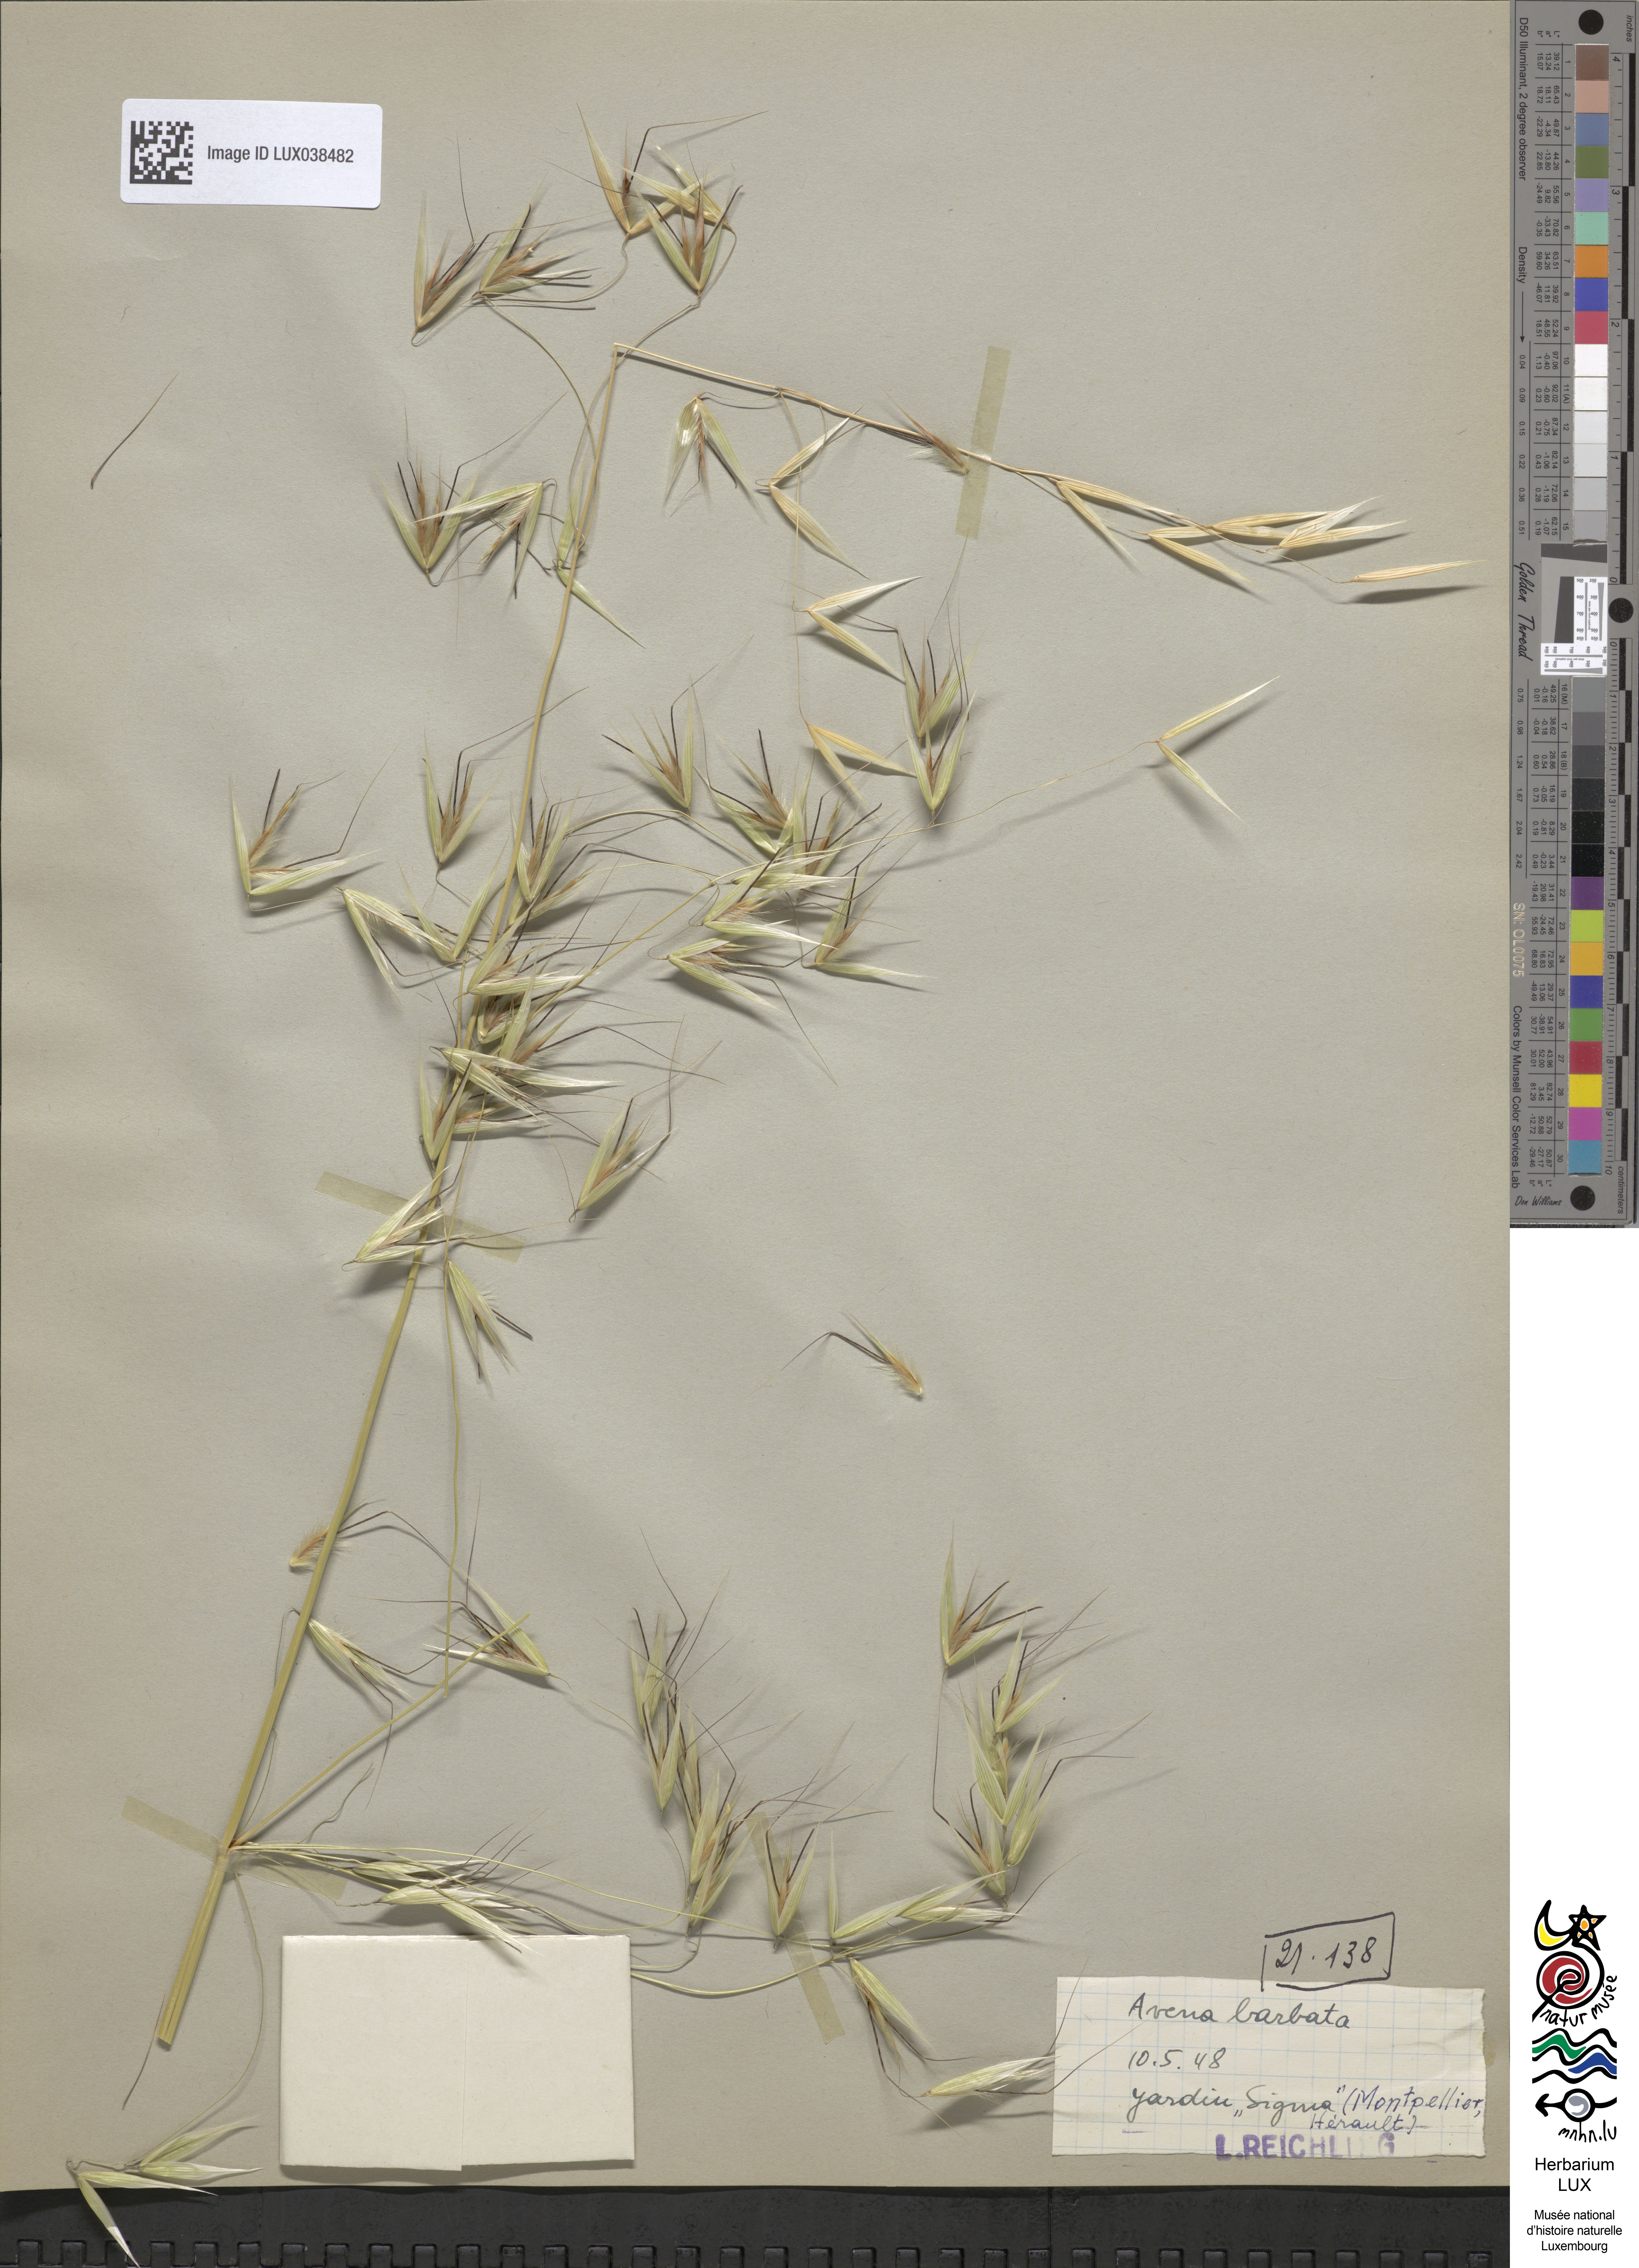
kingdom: Plantae
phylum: Tracheophyta
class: Liliopsida
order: Poales
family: Poaceae
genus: Avena
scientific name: Avena barbata
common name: Slender oat
